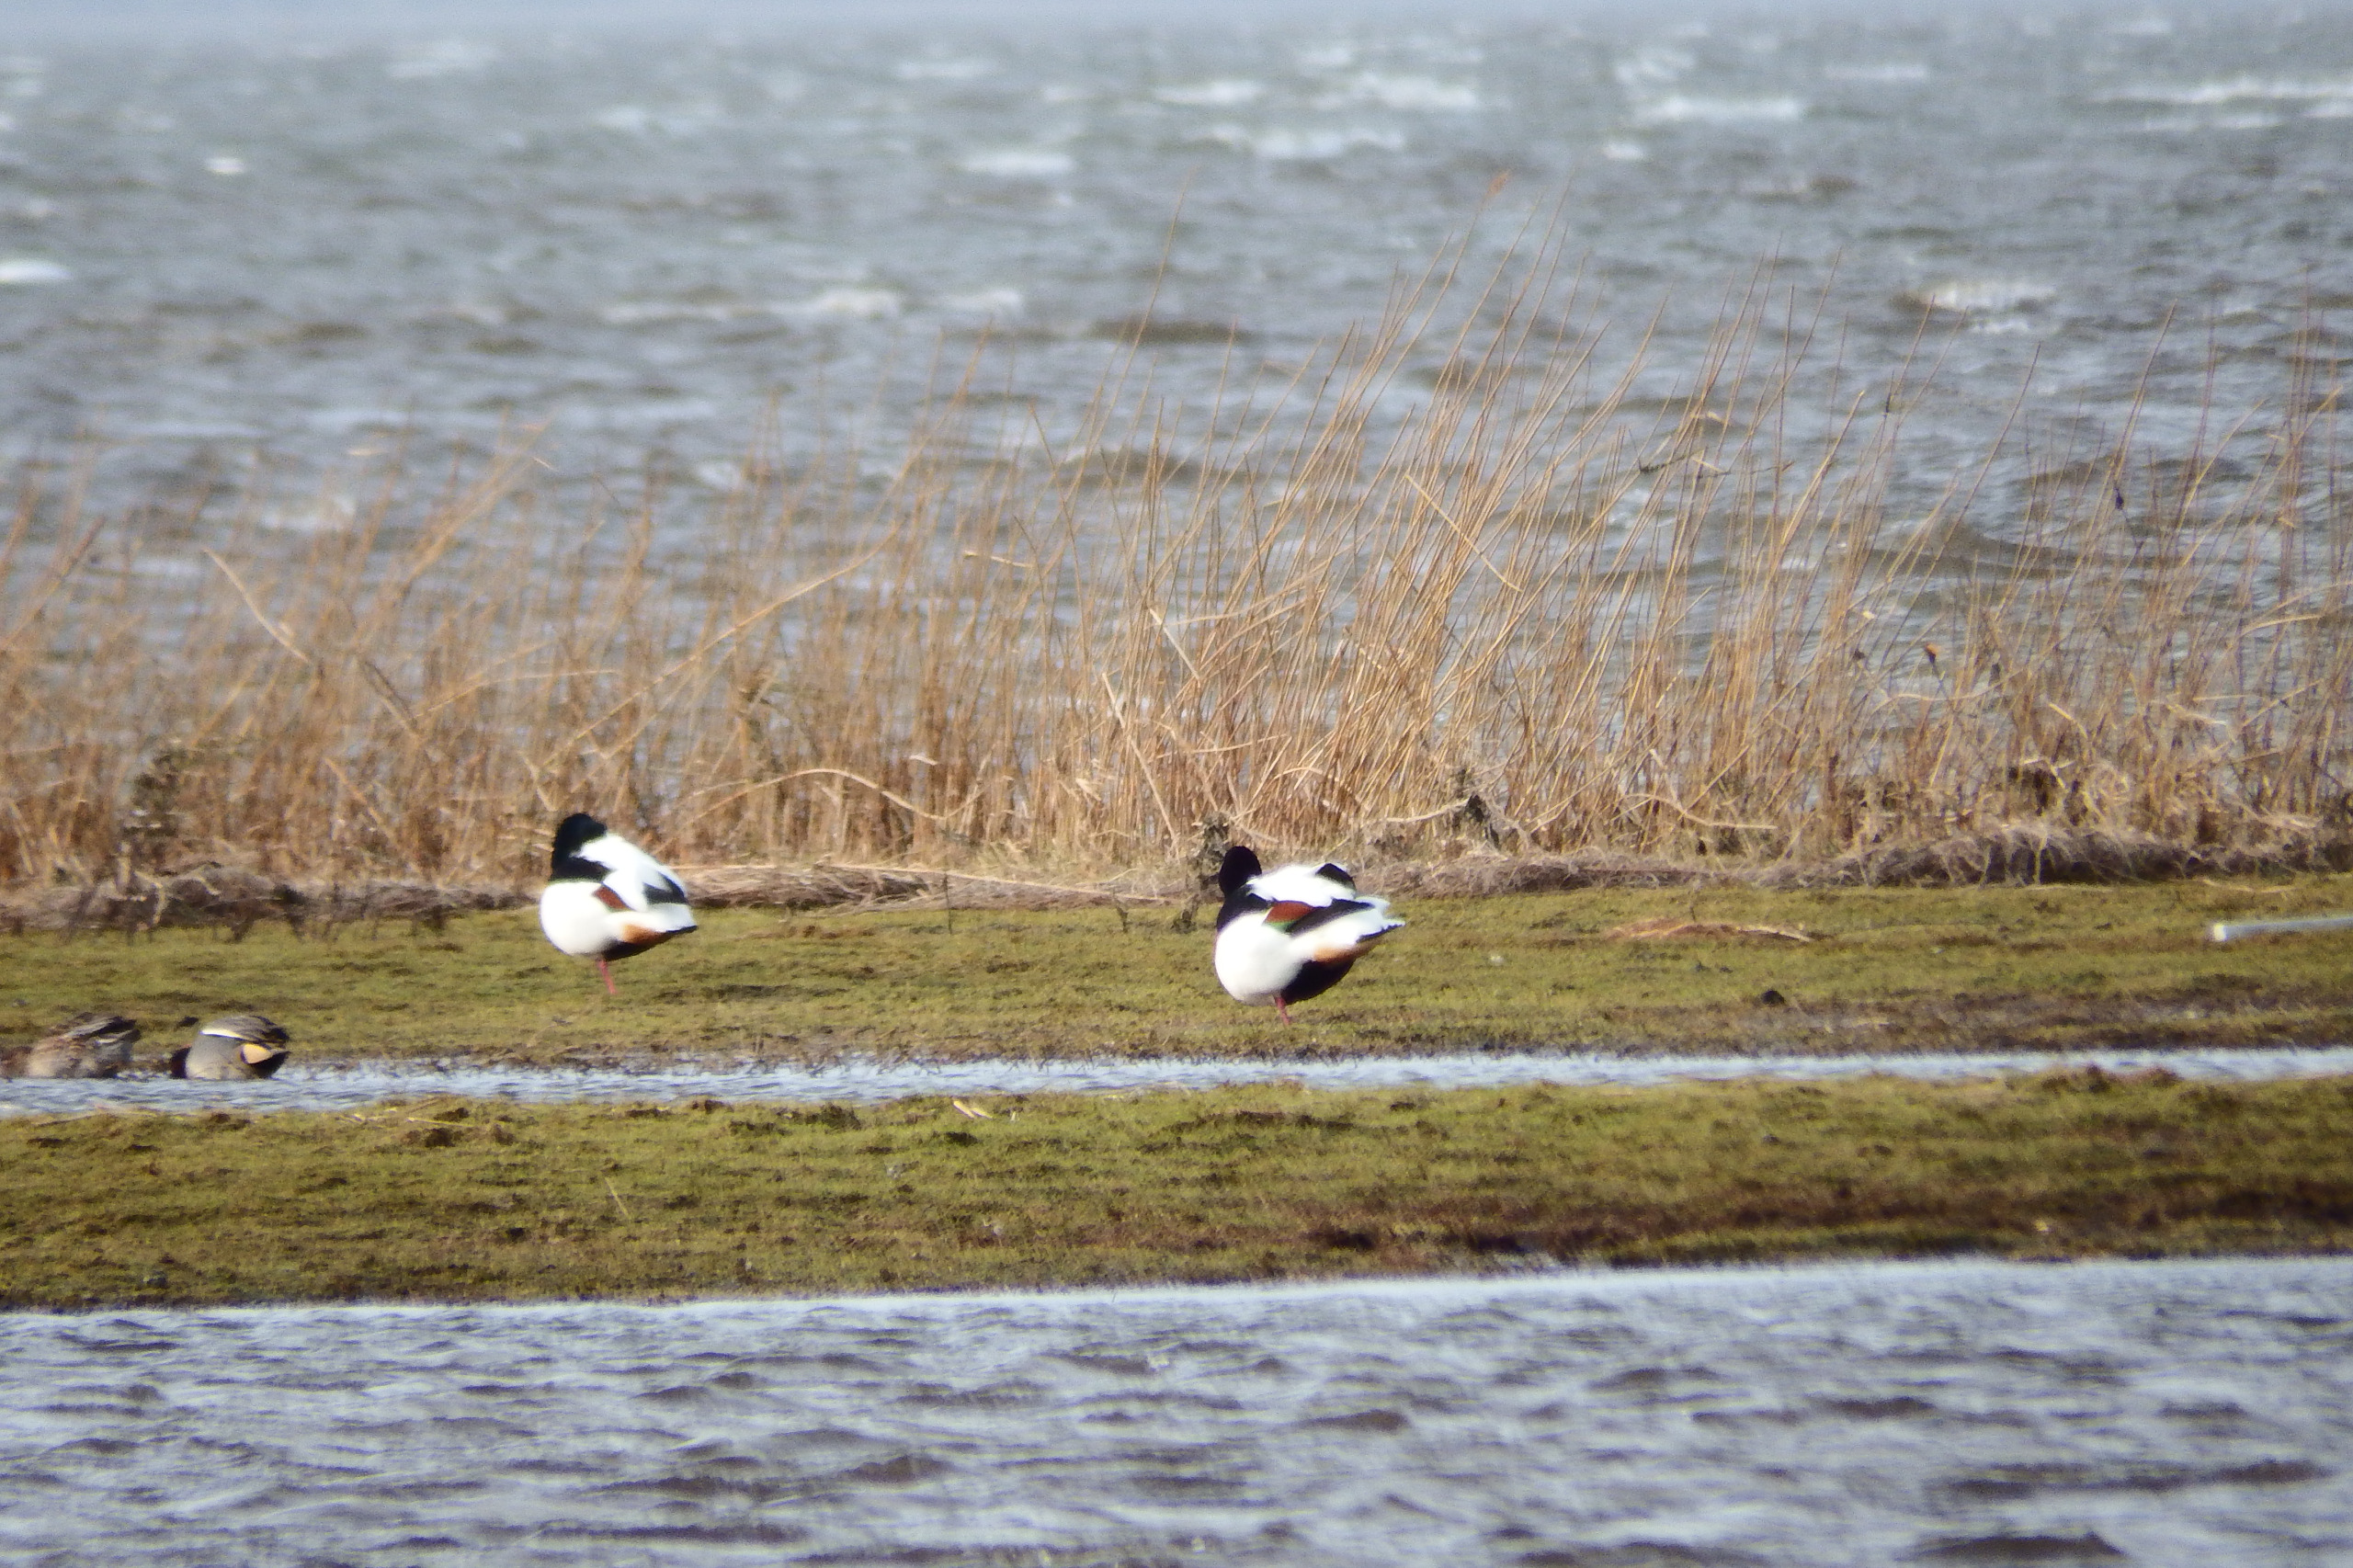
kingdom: Animalia
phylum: Chordata
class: Aves
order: Anseriformes
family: Anatidae
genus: Tadorna
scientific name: Tadorna tadorna
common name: Gravand
